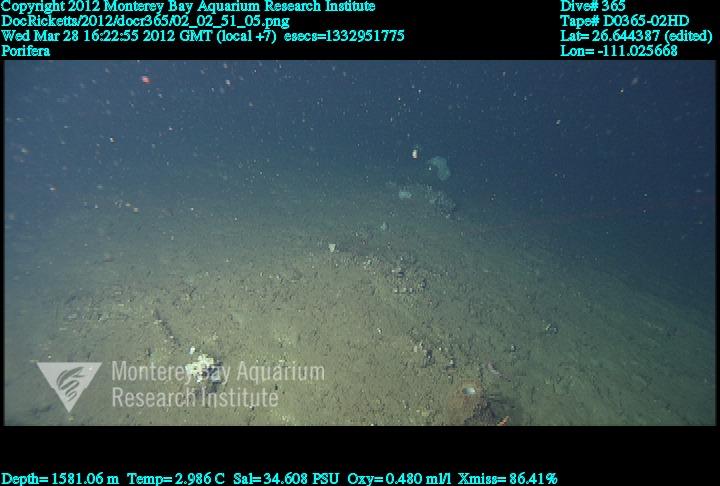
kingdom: Animalia
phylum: Porifera
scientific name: Porifera
